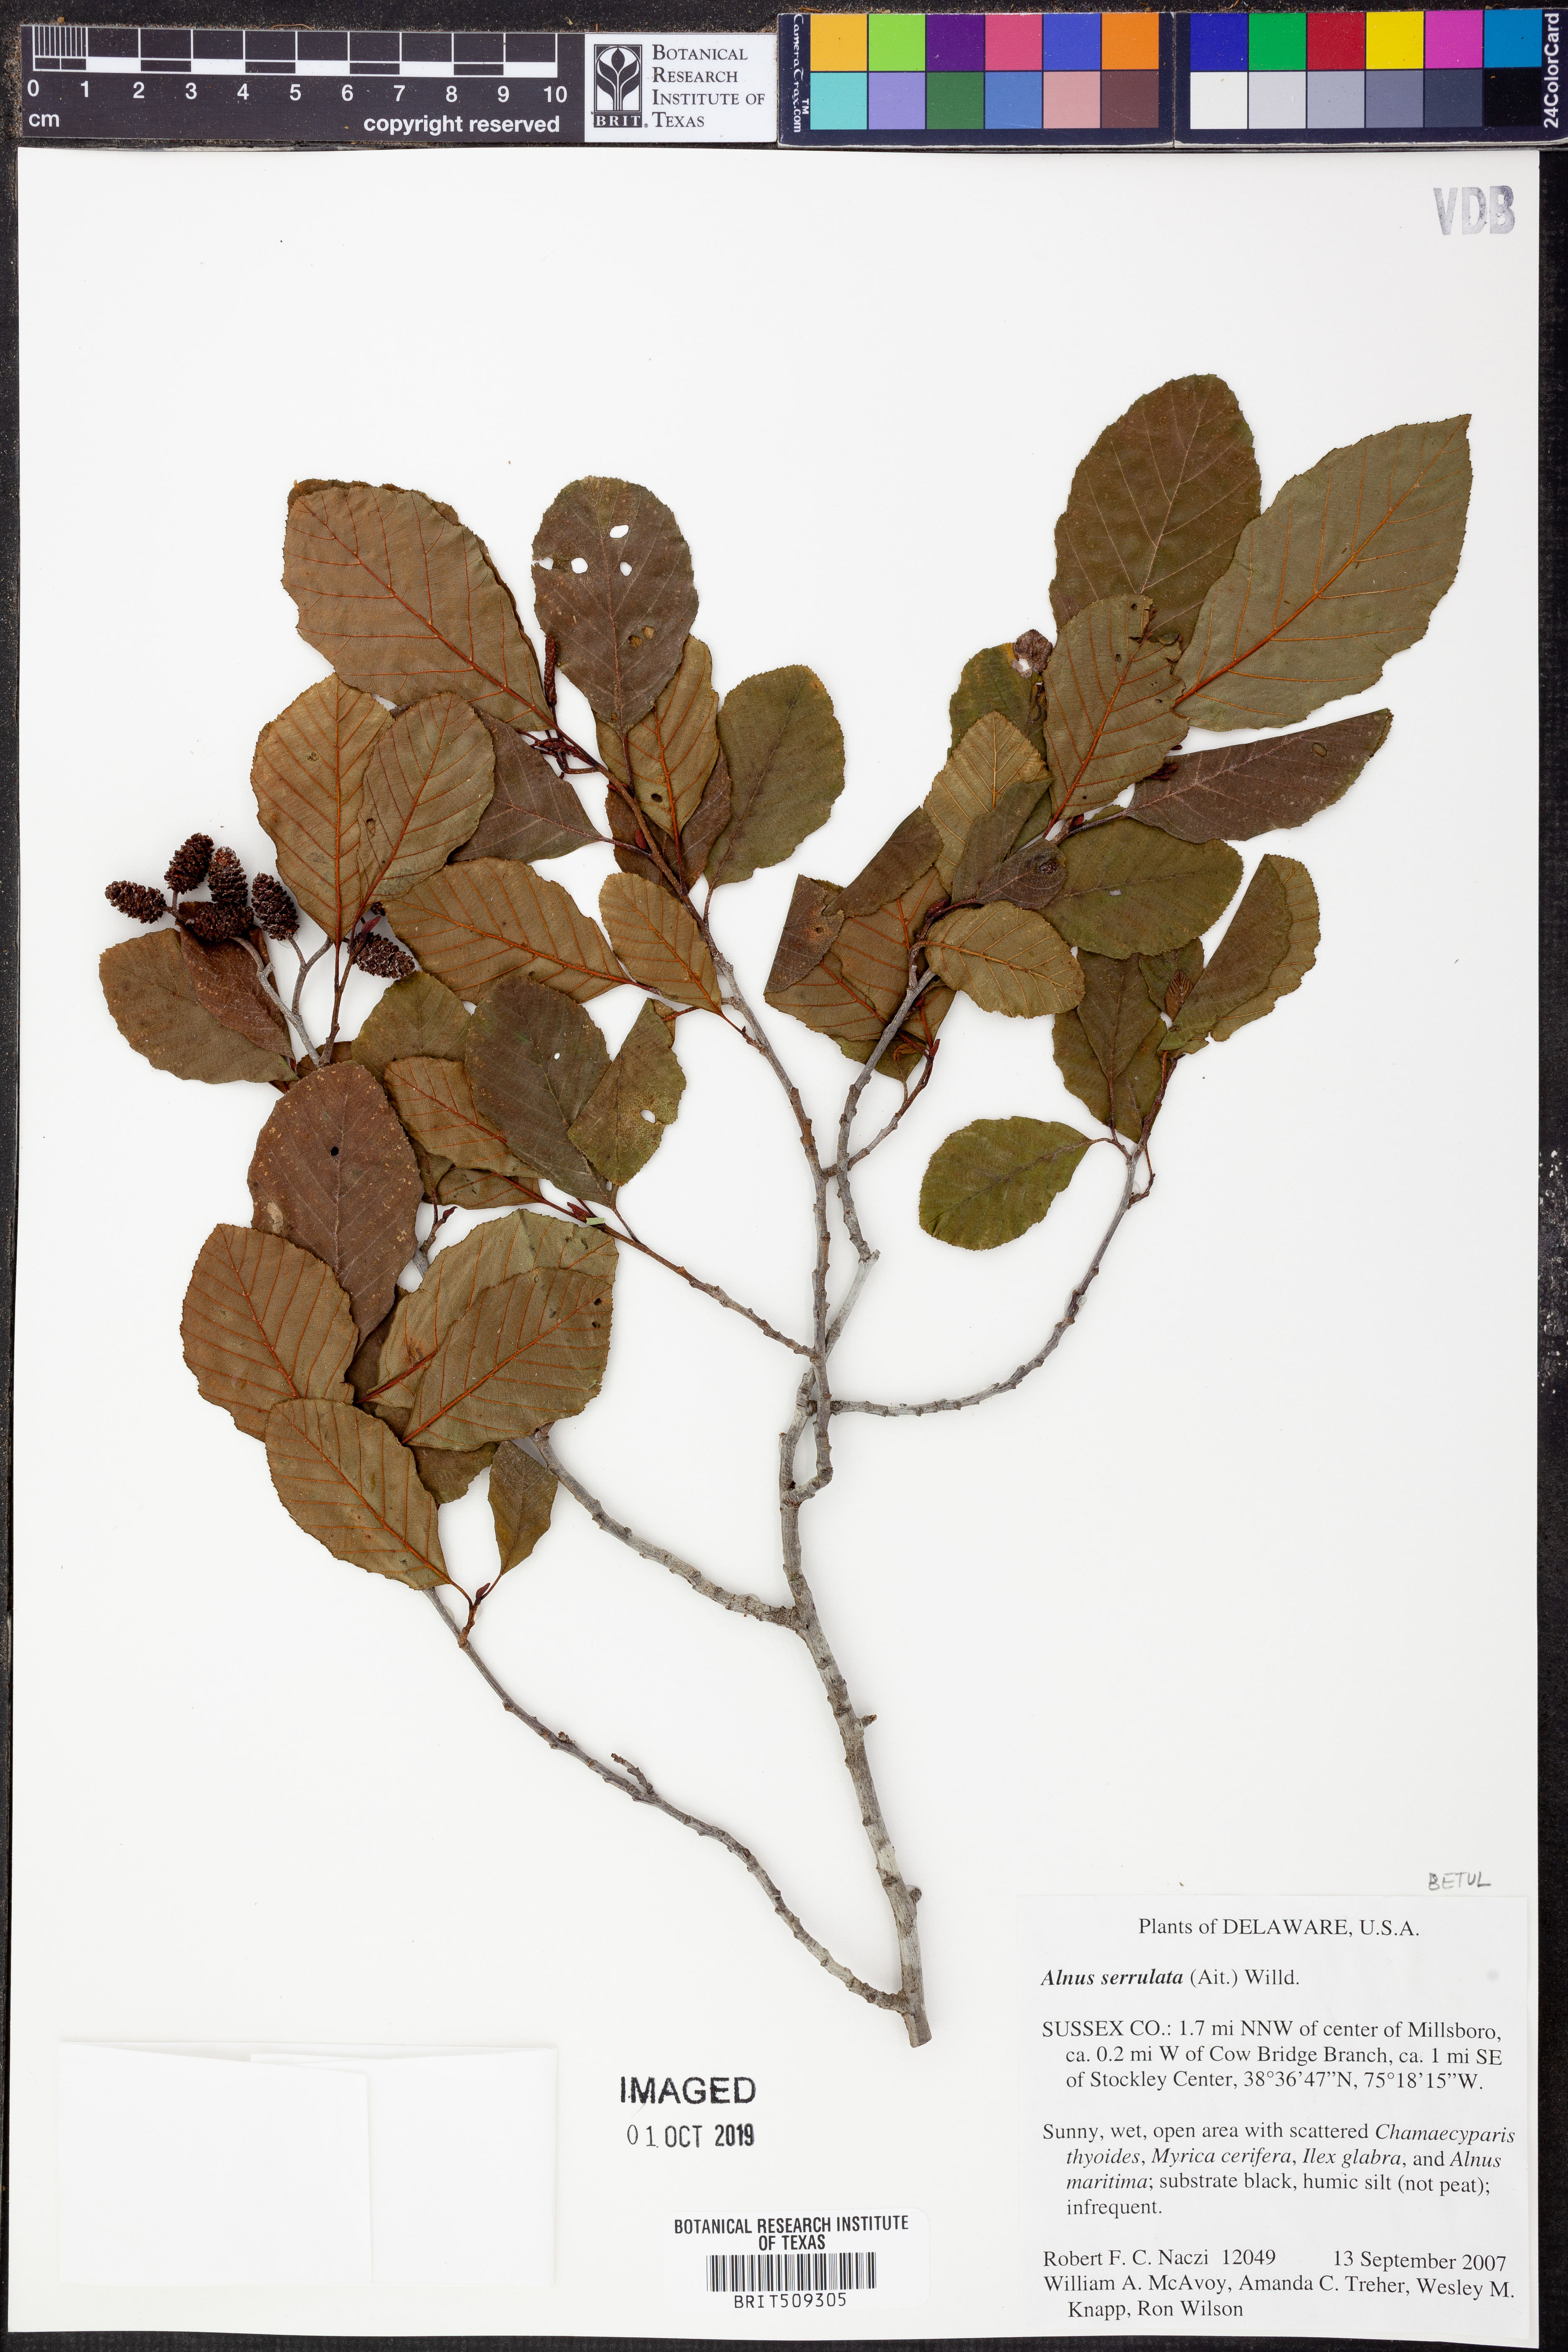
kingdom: Plantae
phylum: Tracheophyta
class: Magnoliopsida
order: Fagales
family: Betulaceae
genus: Alnus
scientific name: Alnus serrulata
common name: Hazel alder
